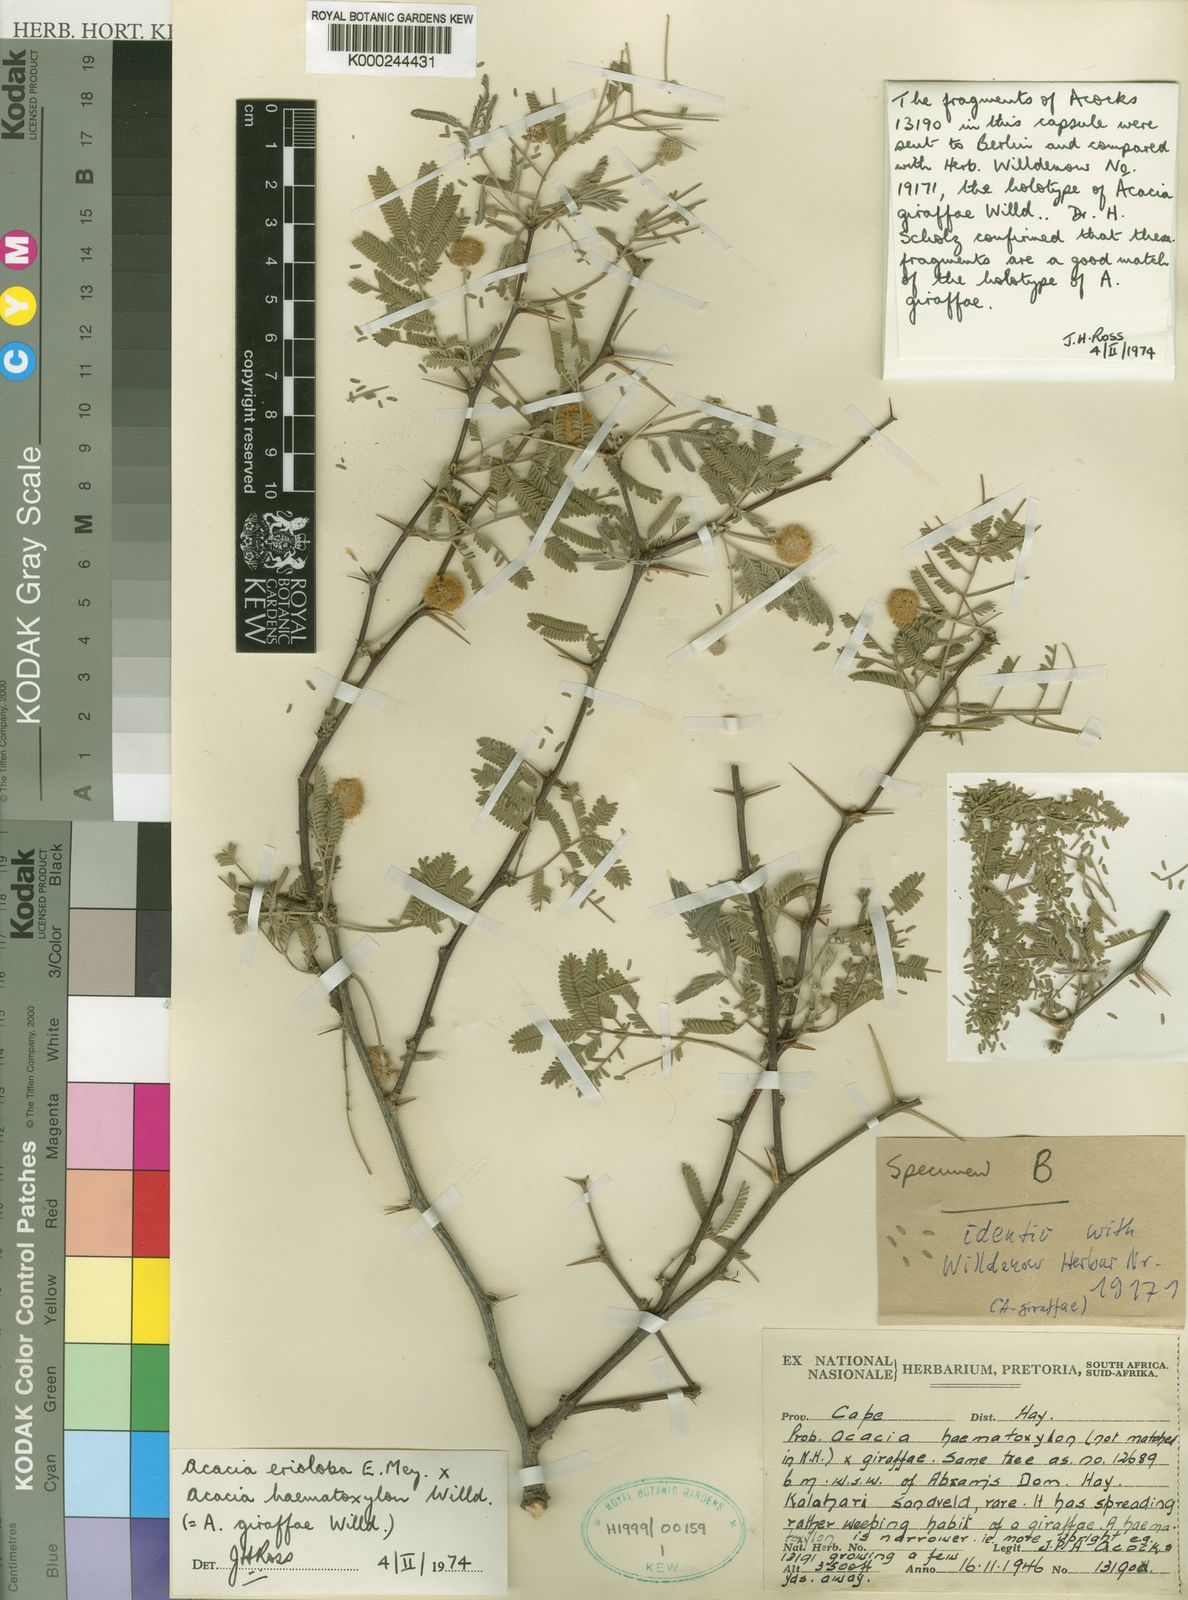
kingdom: Plantae
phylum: Tracheophyta
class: Magnoliopsida
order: Fabales
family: Fabaceae
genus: Vachellia
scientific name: Vachellia erioloba
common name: Camel thorn
